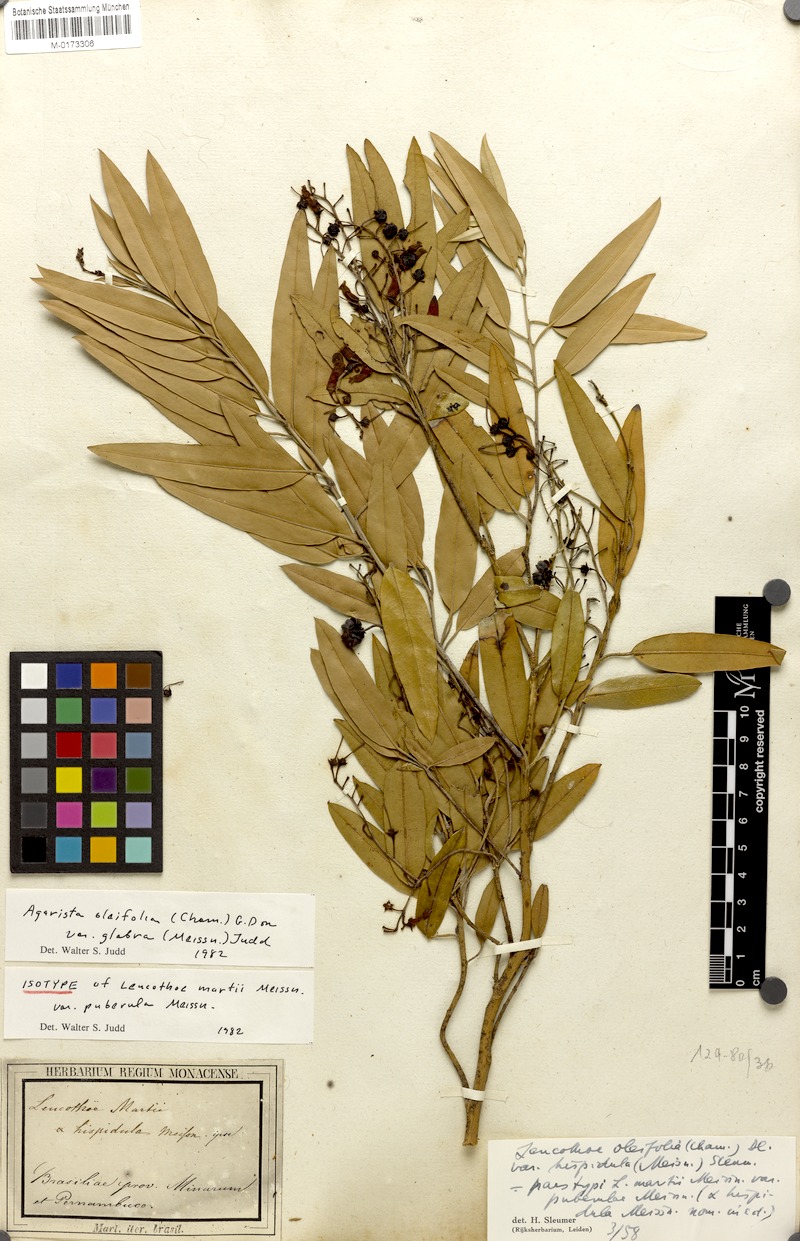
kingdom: Plantae
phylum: Tracheophyta
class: Magnoliopsida
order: Ericales
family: Ericaceae
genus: Agarista
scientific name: Agarista oleifolia
